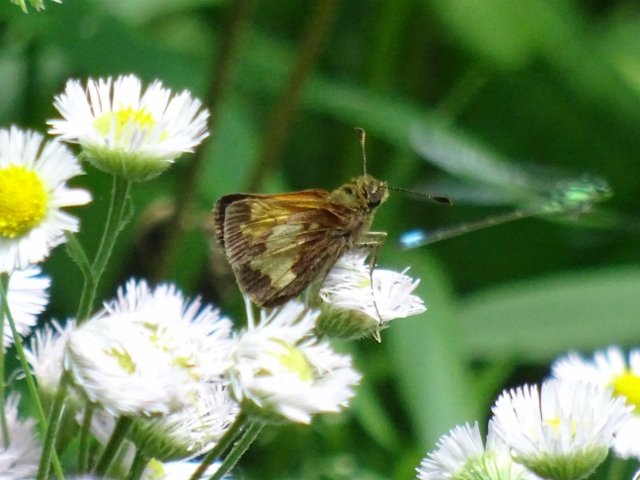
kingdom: Animalia
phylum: Arthropoda
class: Insecta
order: Lepidoptera
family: Hesperiidae
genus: Lon
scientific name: Lon hobomok
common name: Hobomok Skipper
